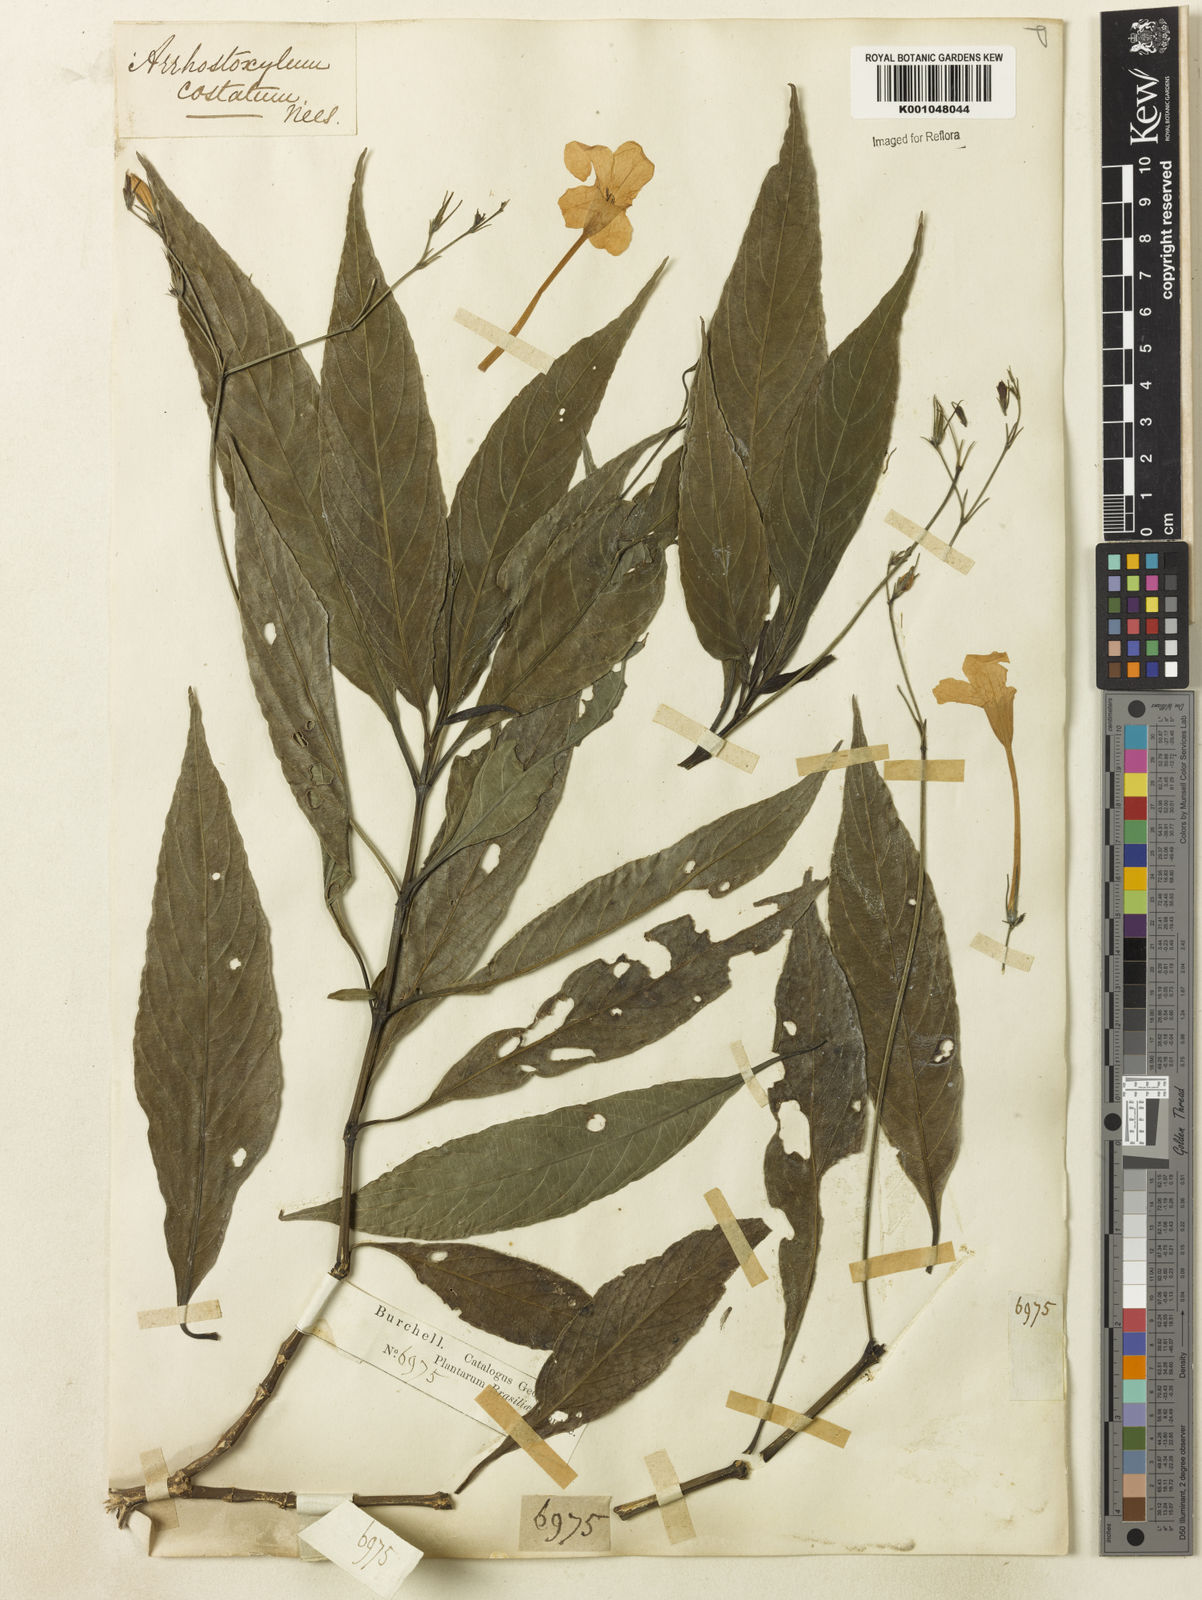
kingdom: Plantae
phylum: Tracheophyta
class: Magnoliopsida
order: Lamiales
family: Acanthaceae
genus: Ruellia
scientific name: Ruellia costata
